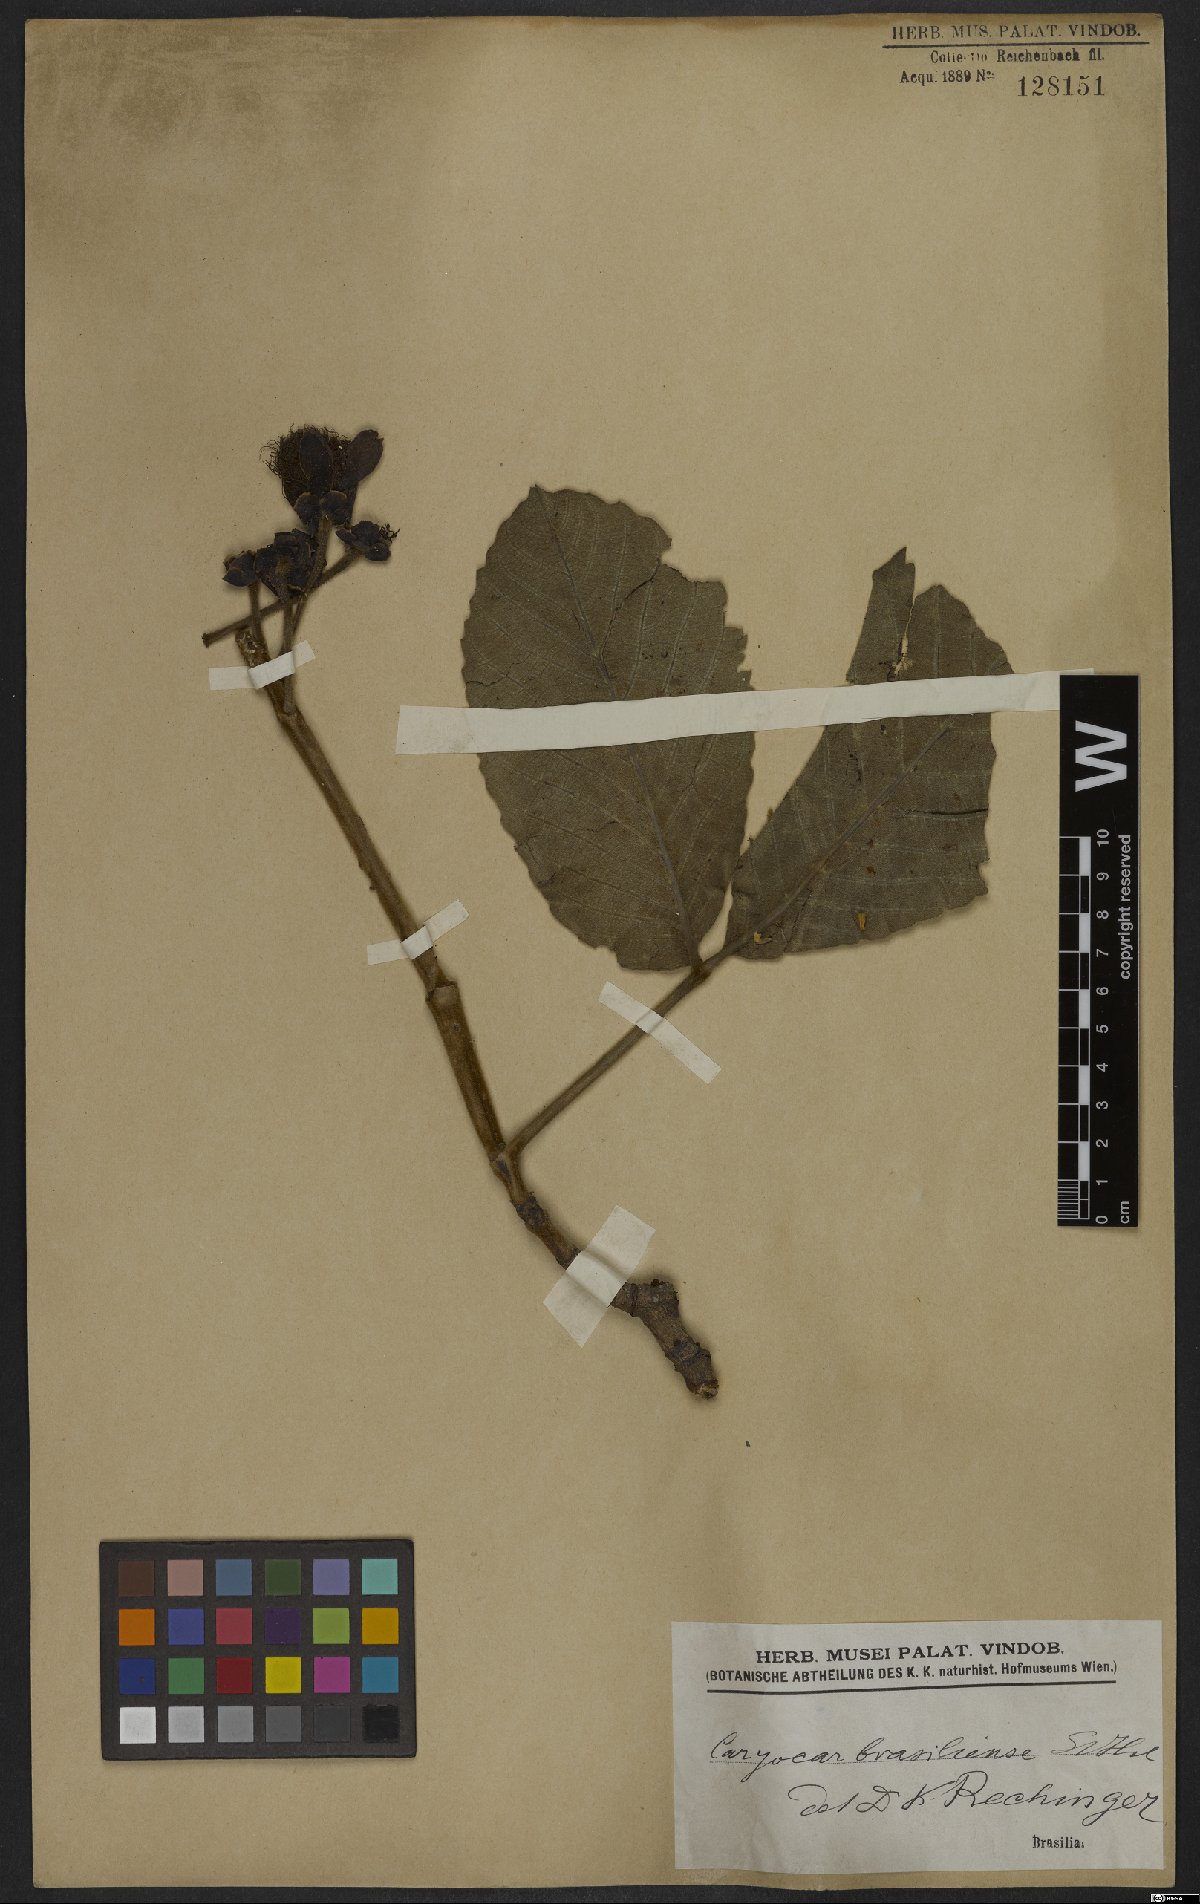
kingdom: Plantae
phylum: Tracheophyta
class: Magnoliopsida
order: Malpighiales
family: Caryocaraceae
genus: Caryocar
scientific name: Caryocar brasiliense
